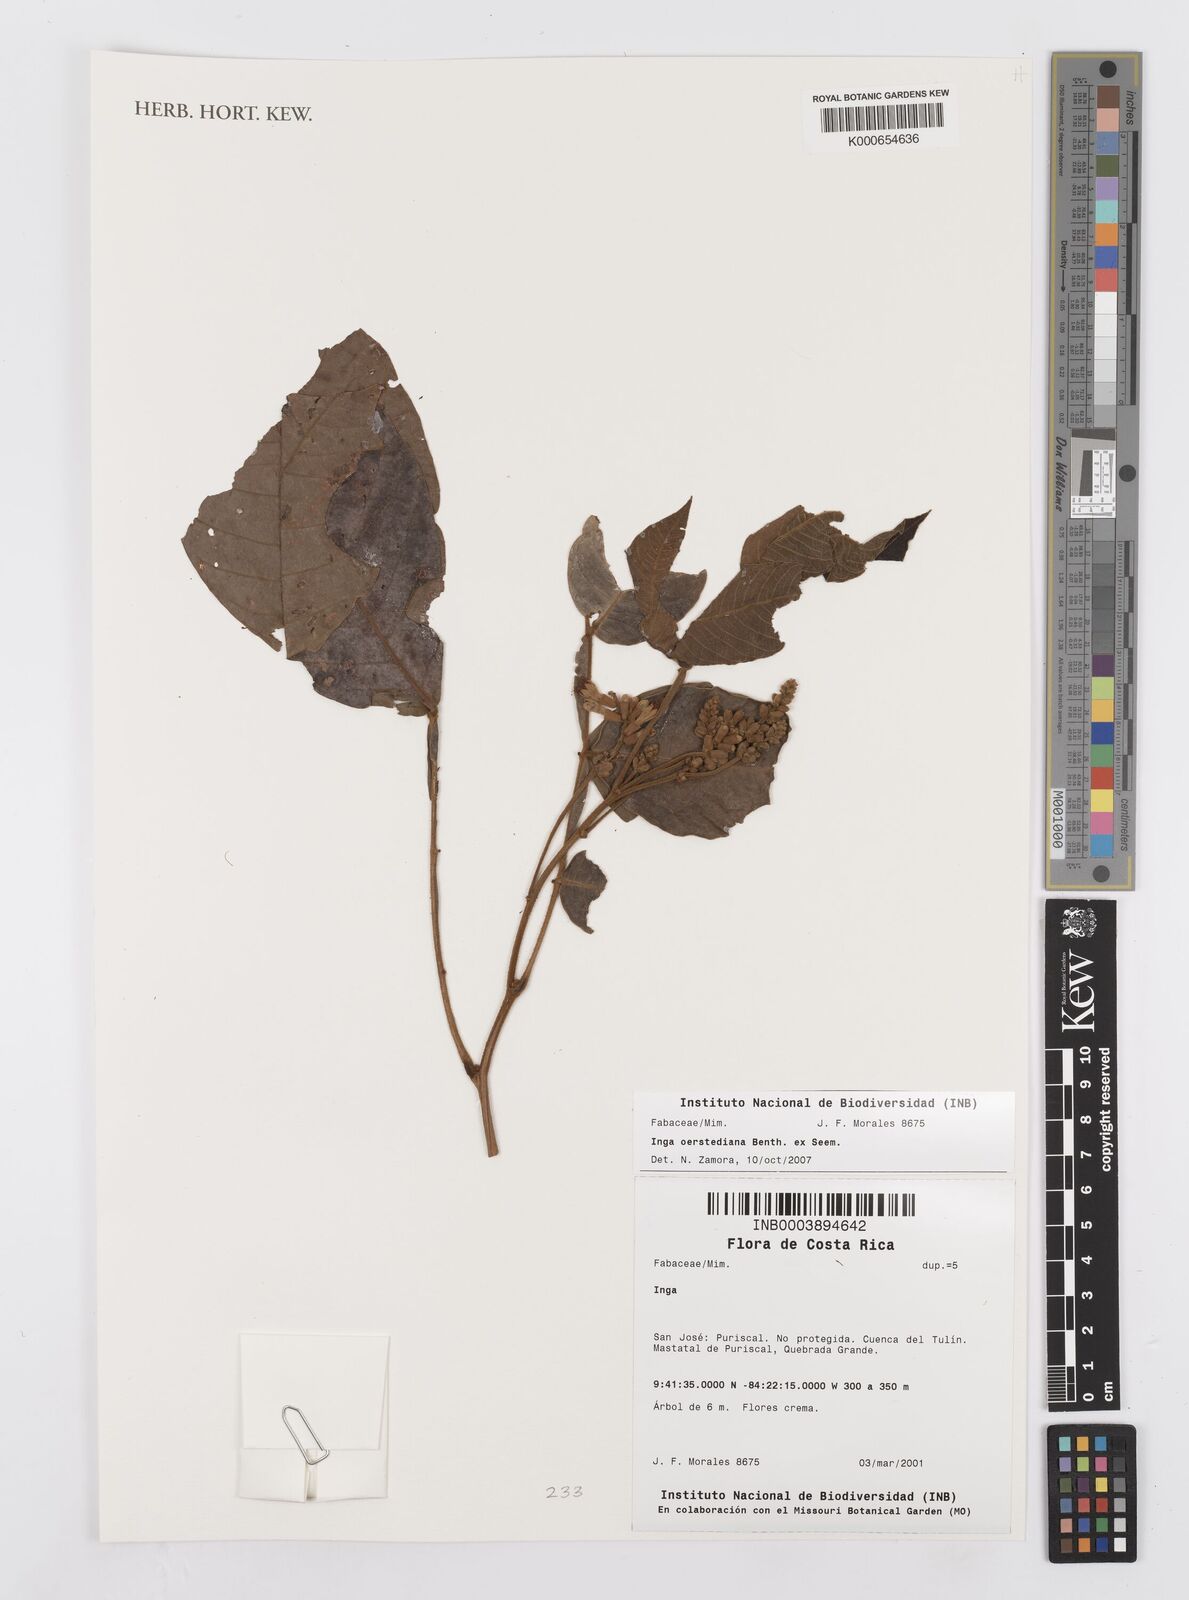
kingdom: Plantae
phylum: Tracheophyta
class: Magnoliopsida
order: Fabales
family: Fabaceae
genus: Inga
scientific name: Inga oerstediana
